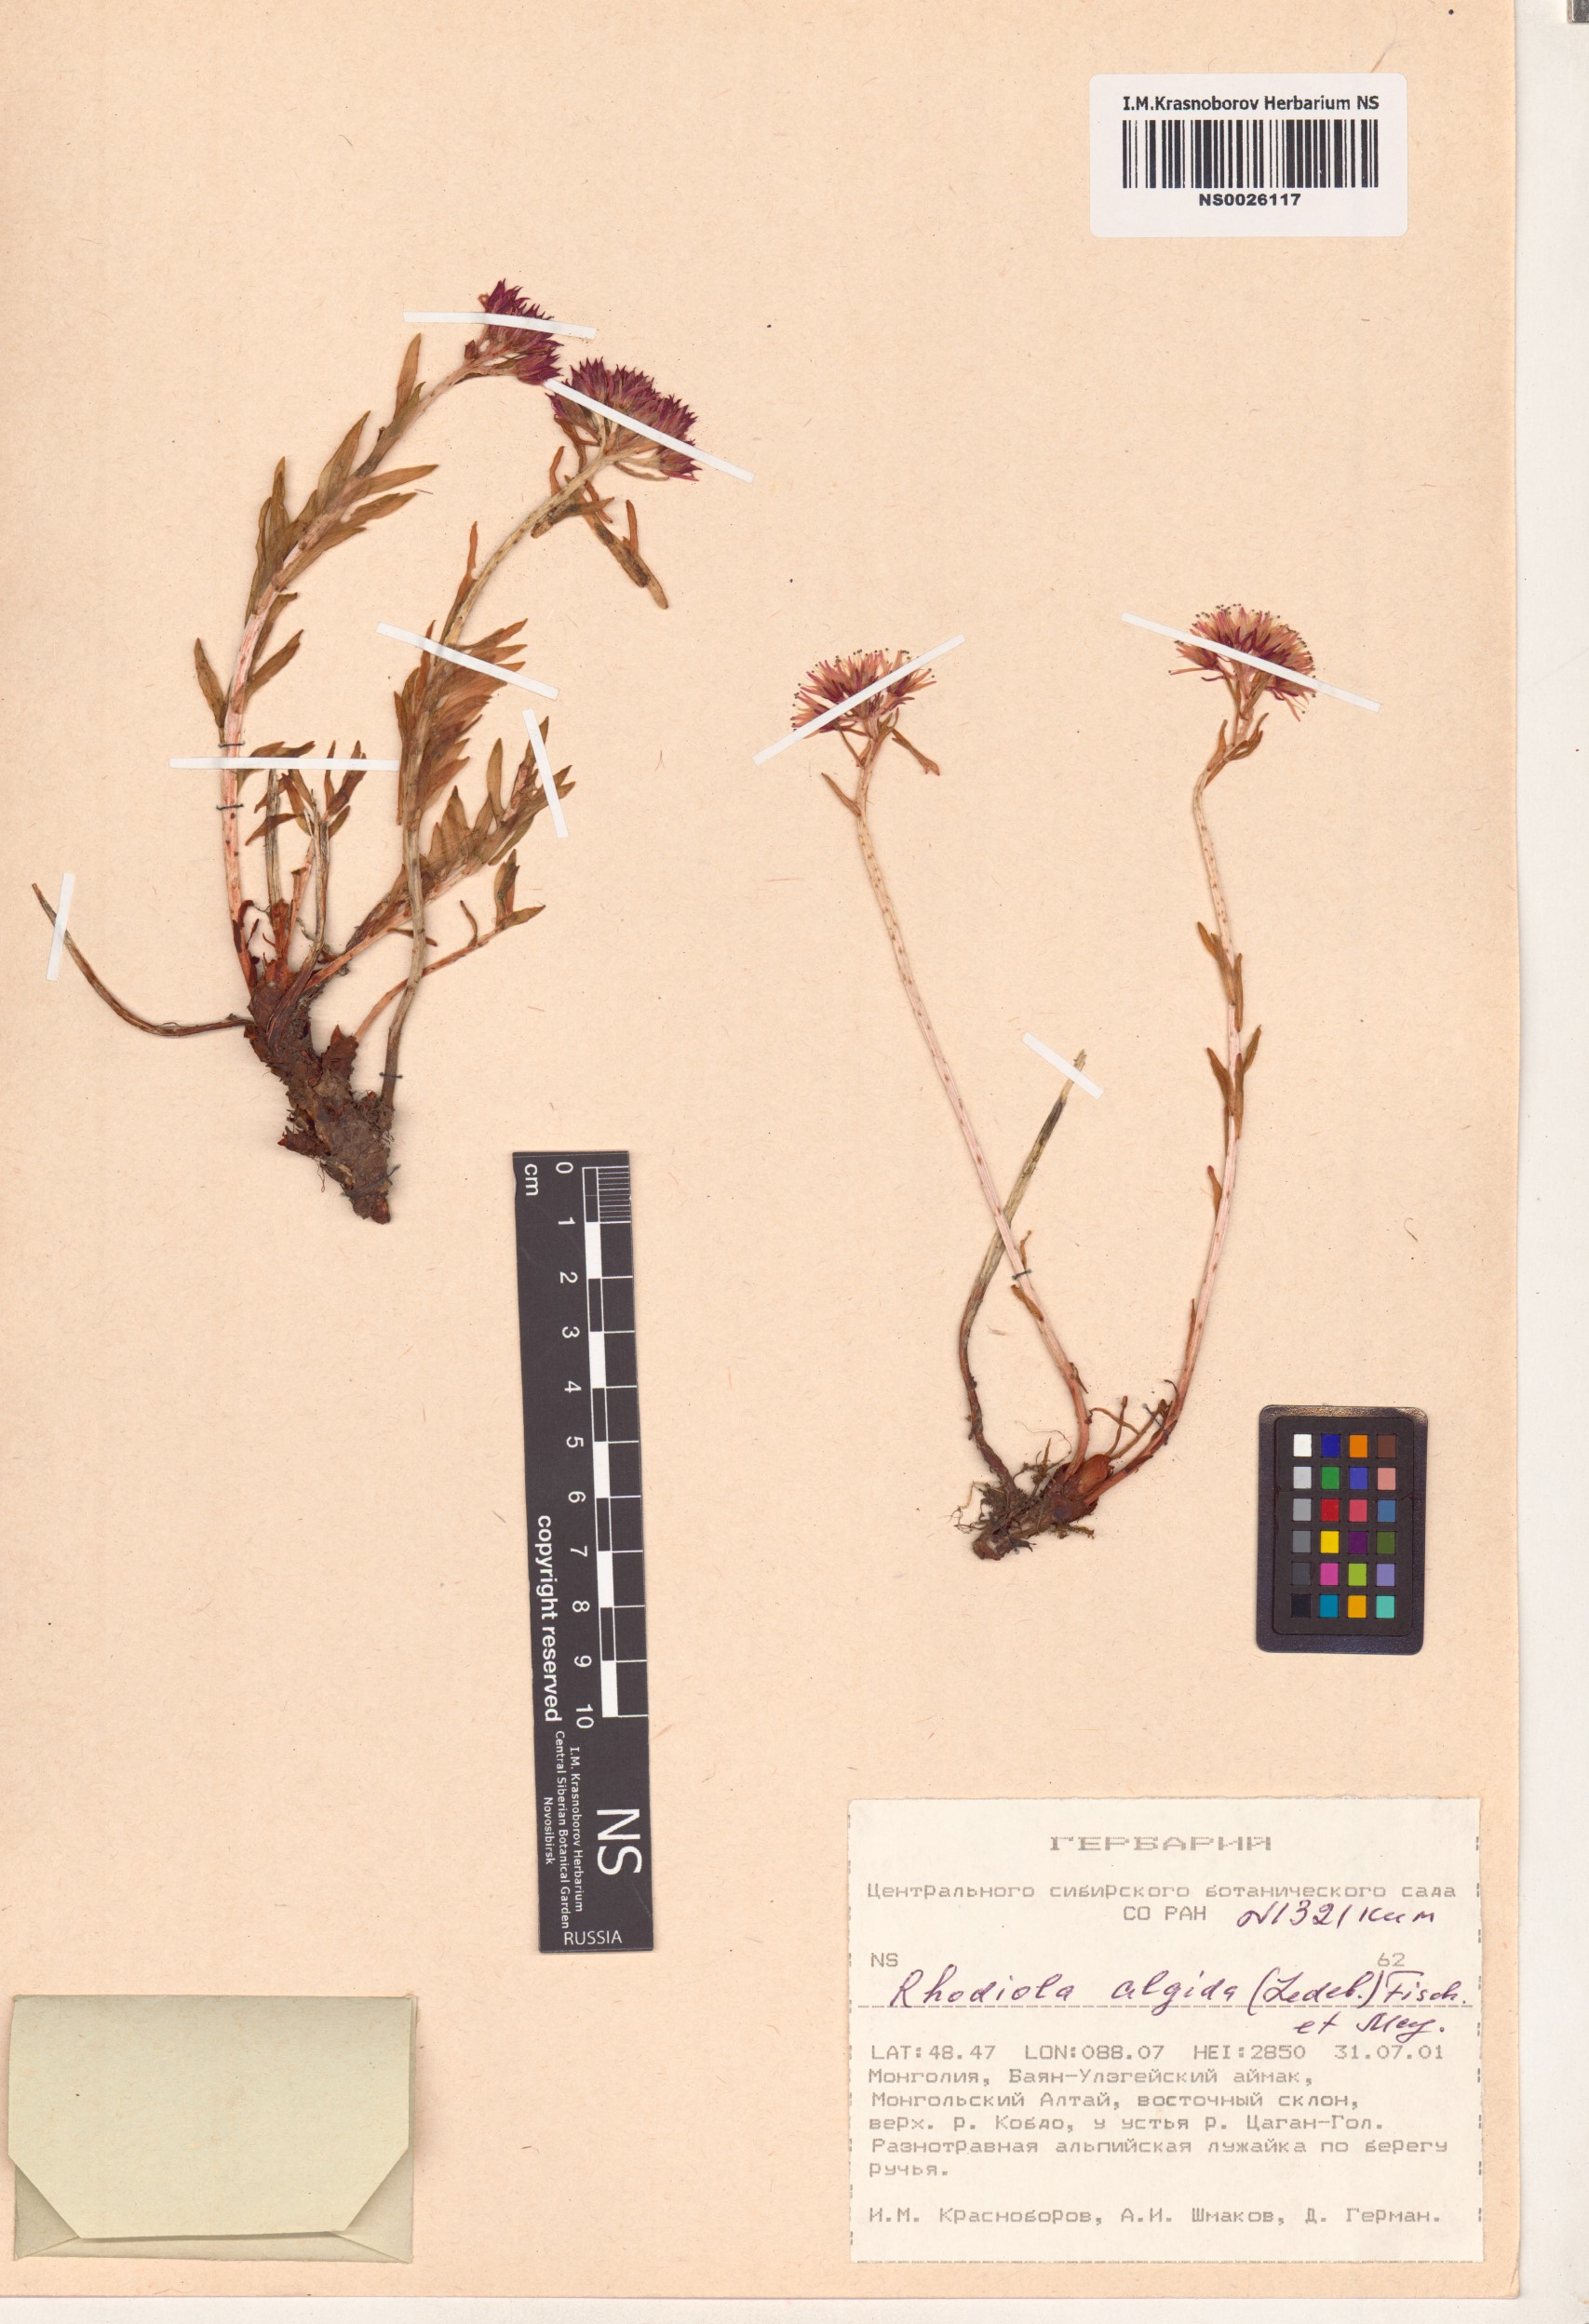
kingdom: Plantae
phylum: Tracheophyta
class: Magnoliopsida
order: Saxifragales
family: Crassulaceae
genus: Rhodiola
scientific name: Rhodiola algida
